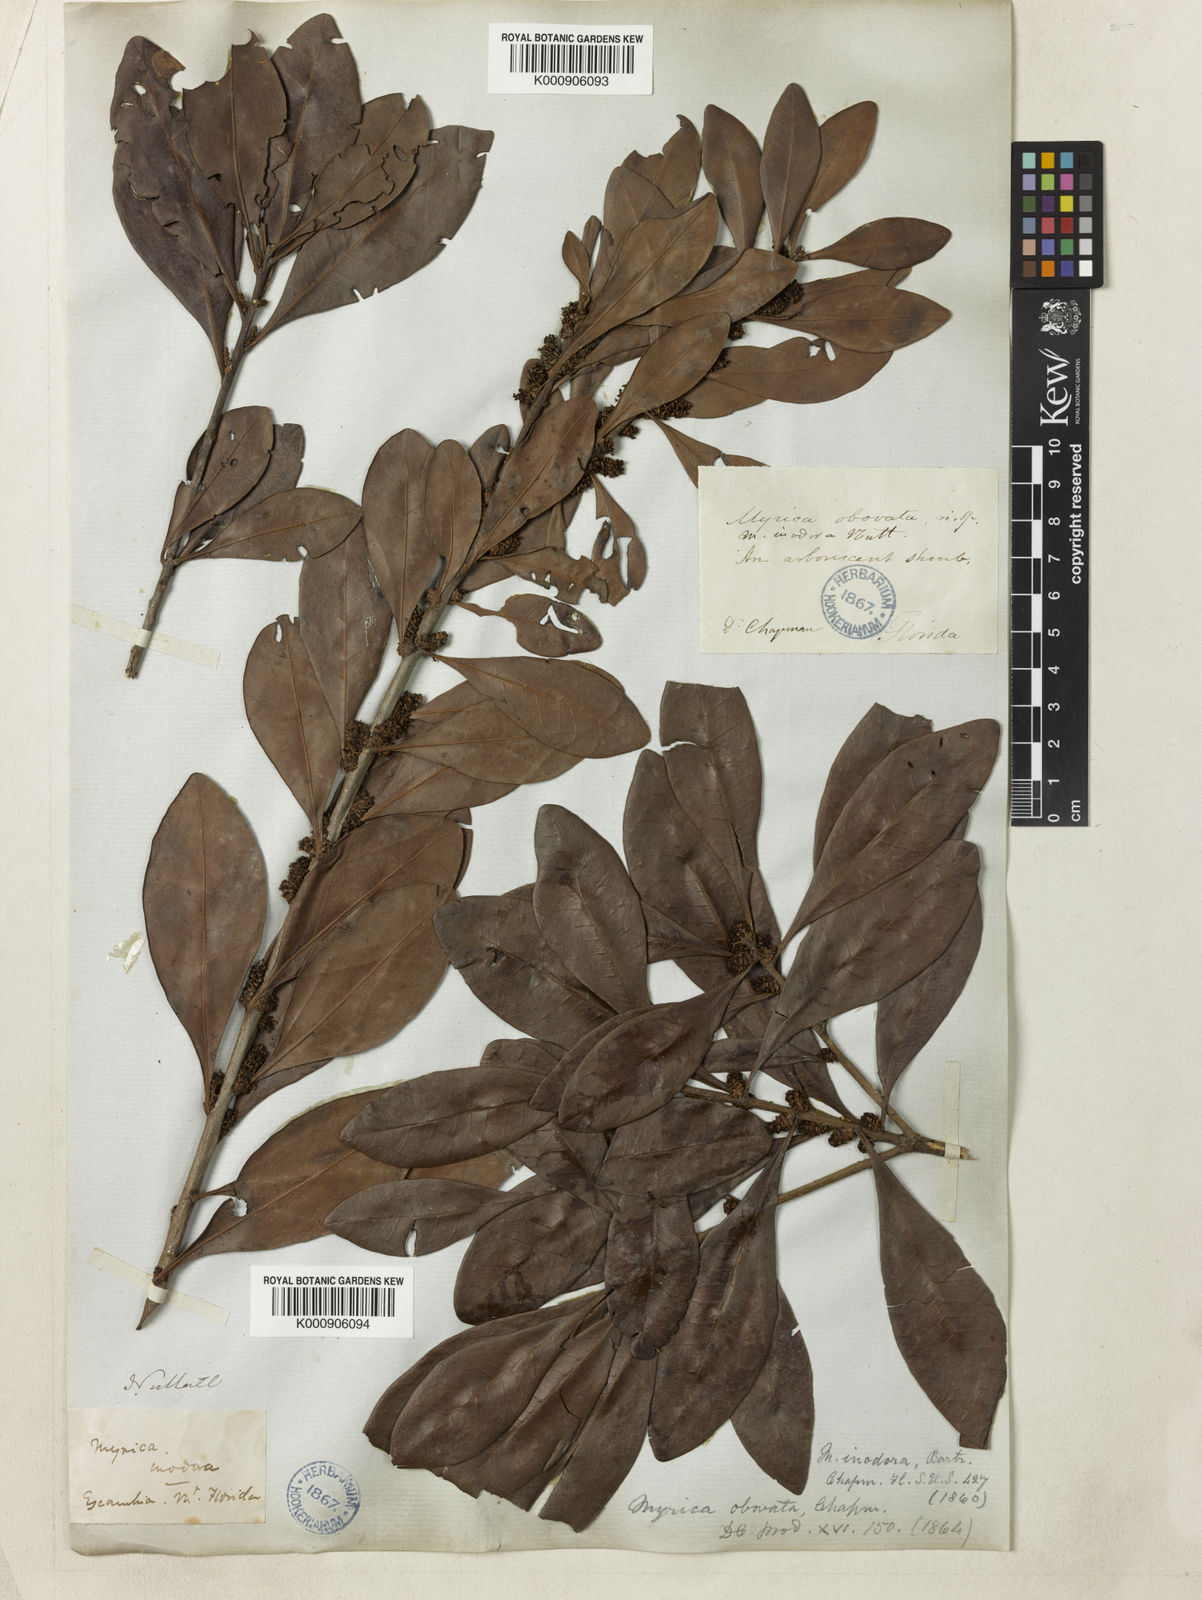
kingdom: Plantae
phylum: Tracheophyta
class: Magnoliopsida
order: Fagales
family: Myricaceae
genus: Myrica
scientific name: Myrica
